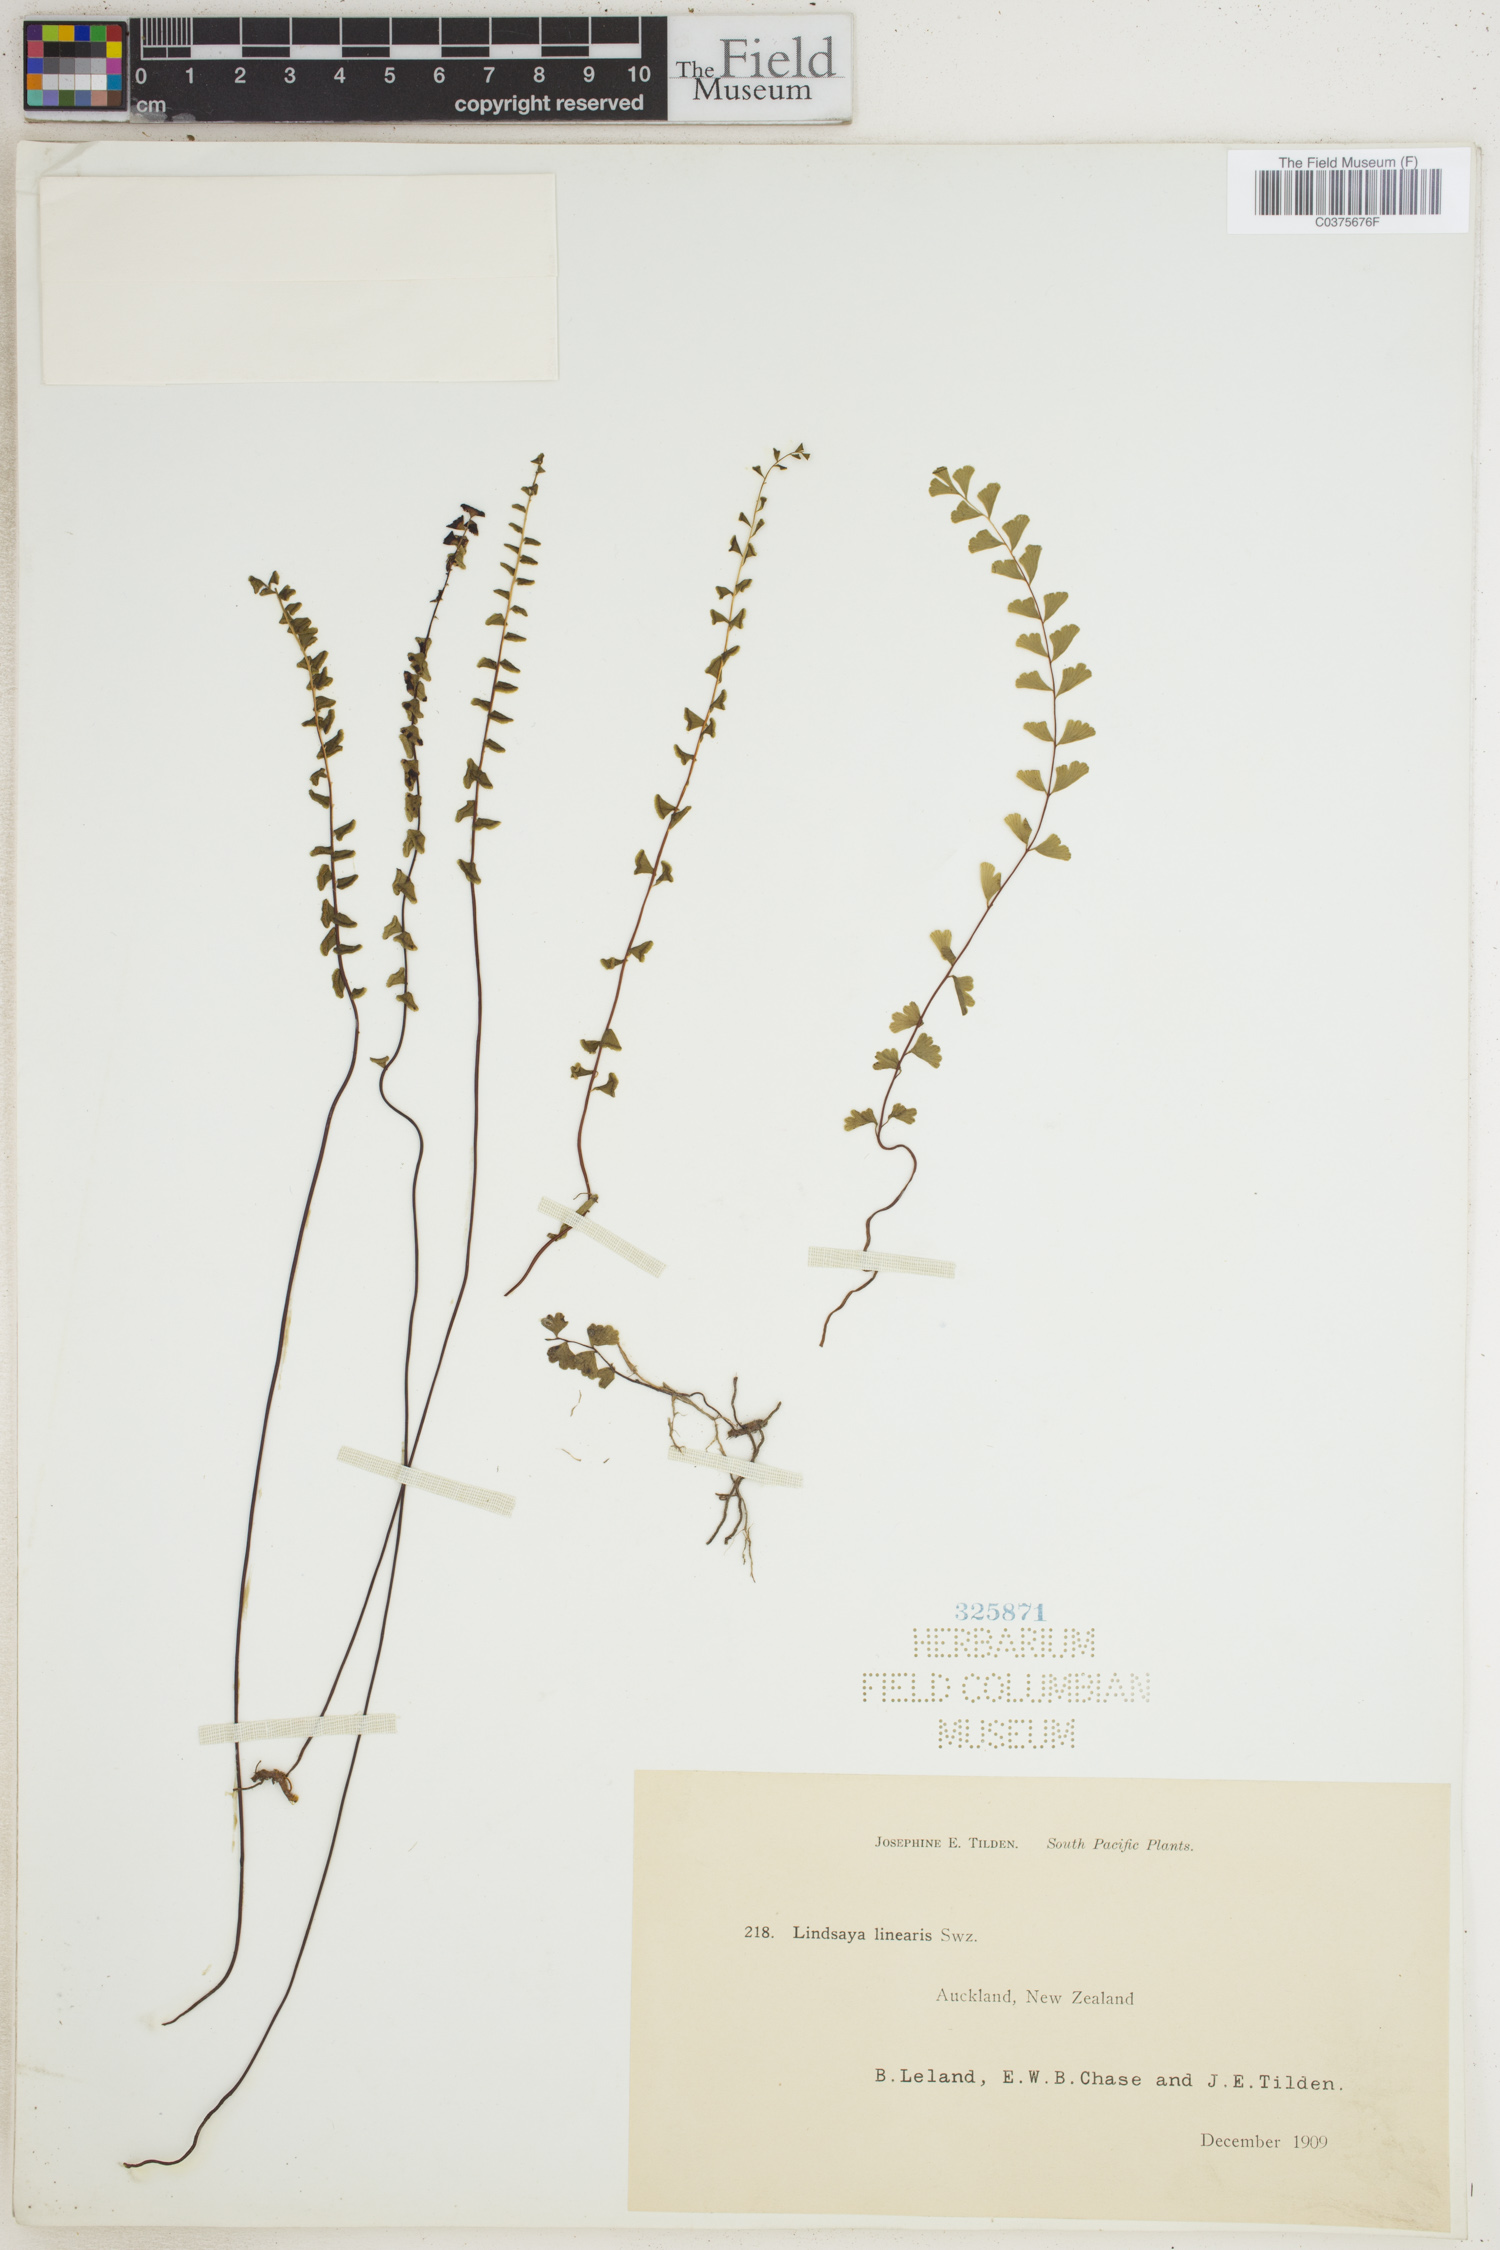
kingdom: Plantae
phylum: Tracheophyta
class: Polypodiopsida
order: Polypodiales
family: Lindsaeaceae
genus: Lindsaea
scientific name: Lindsaea linearis
